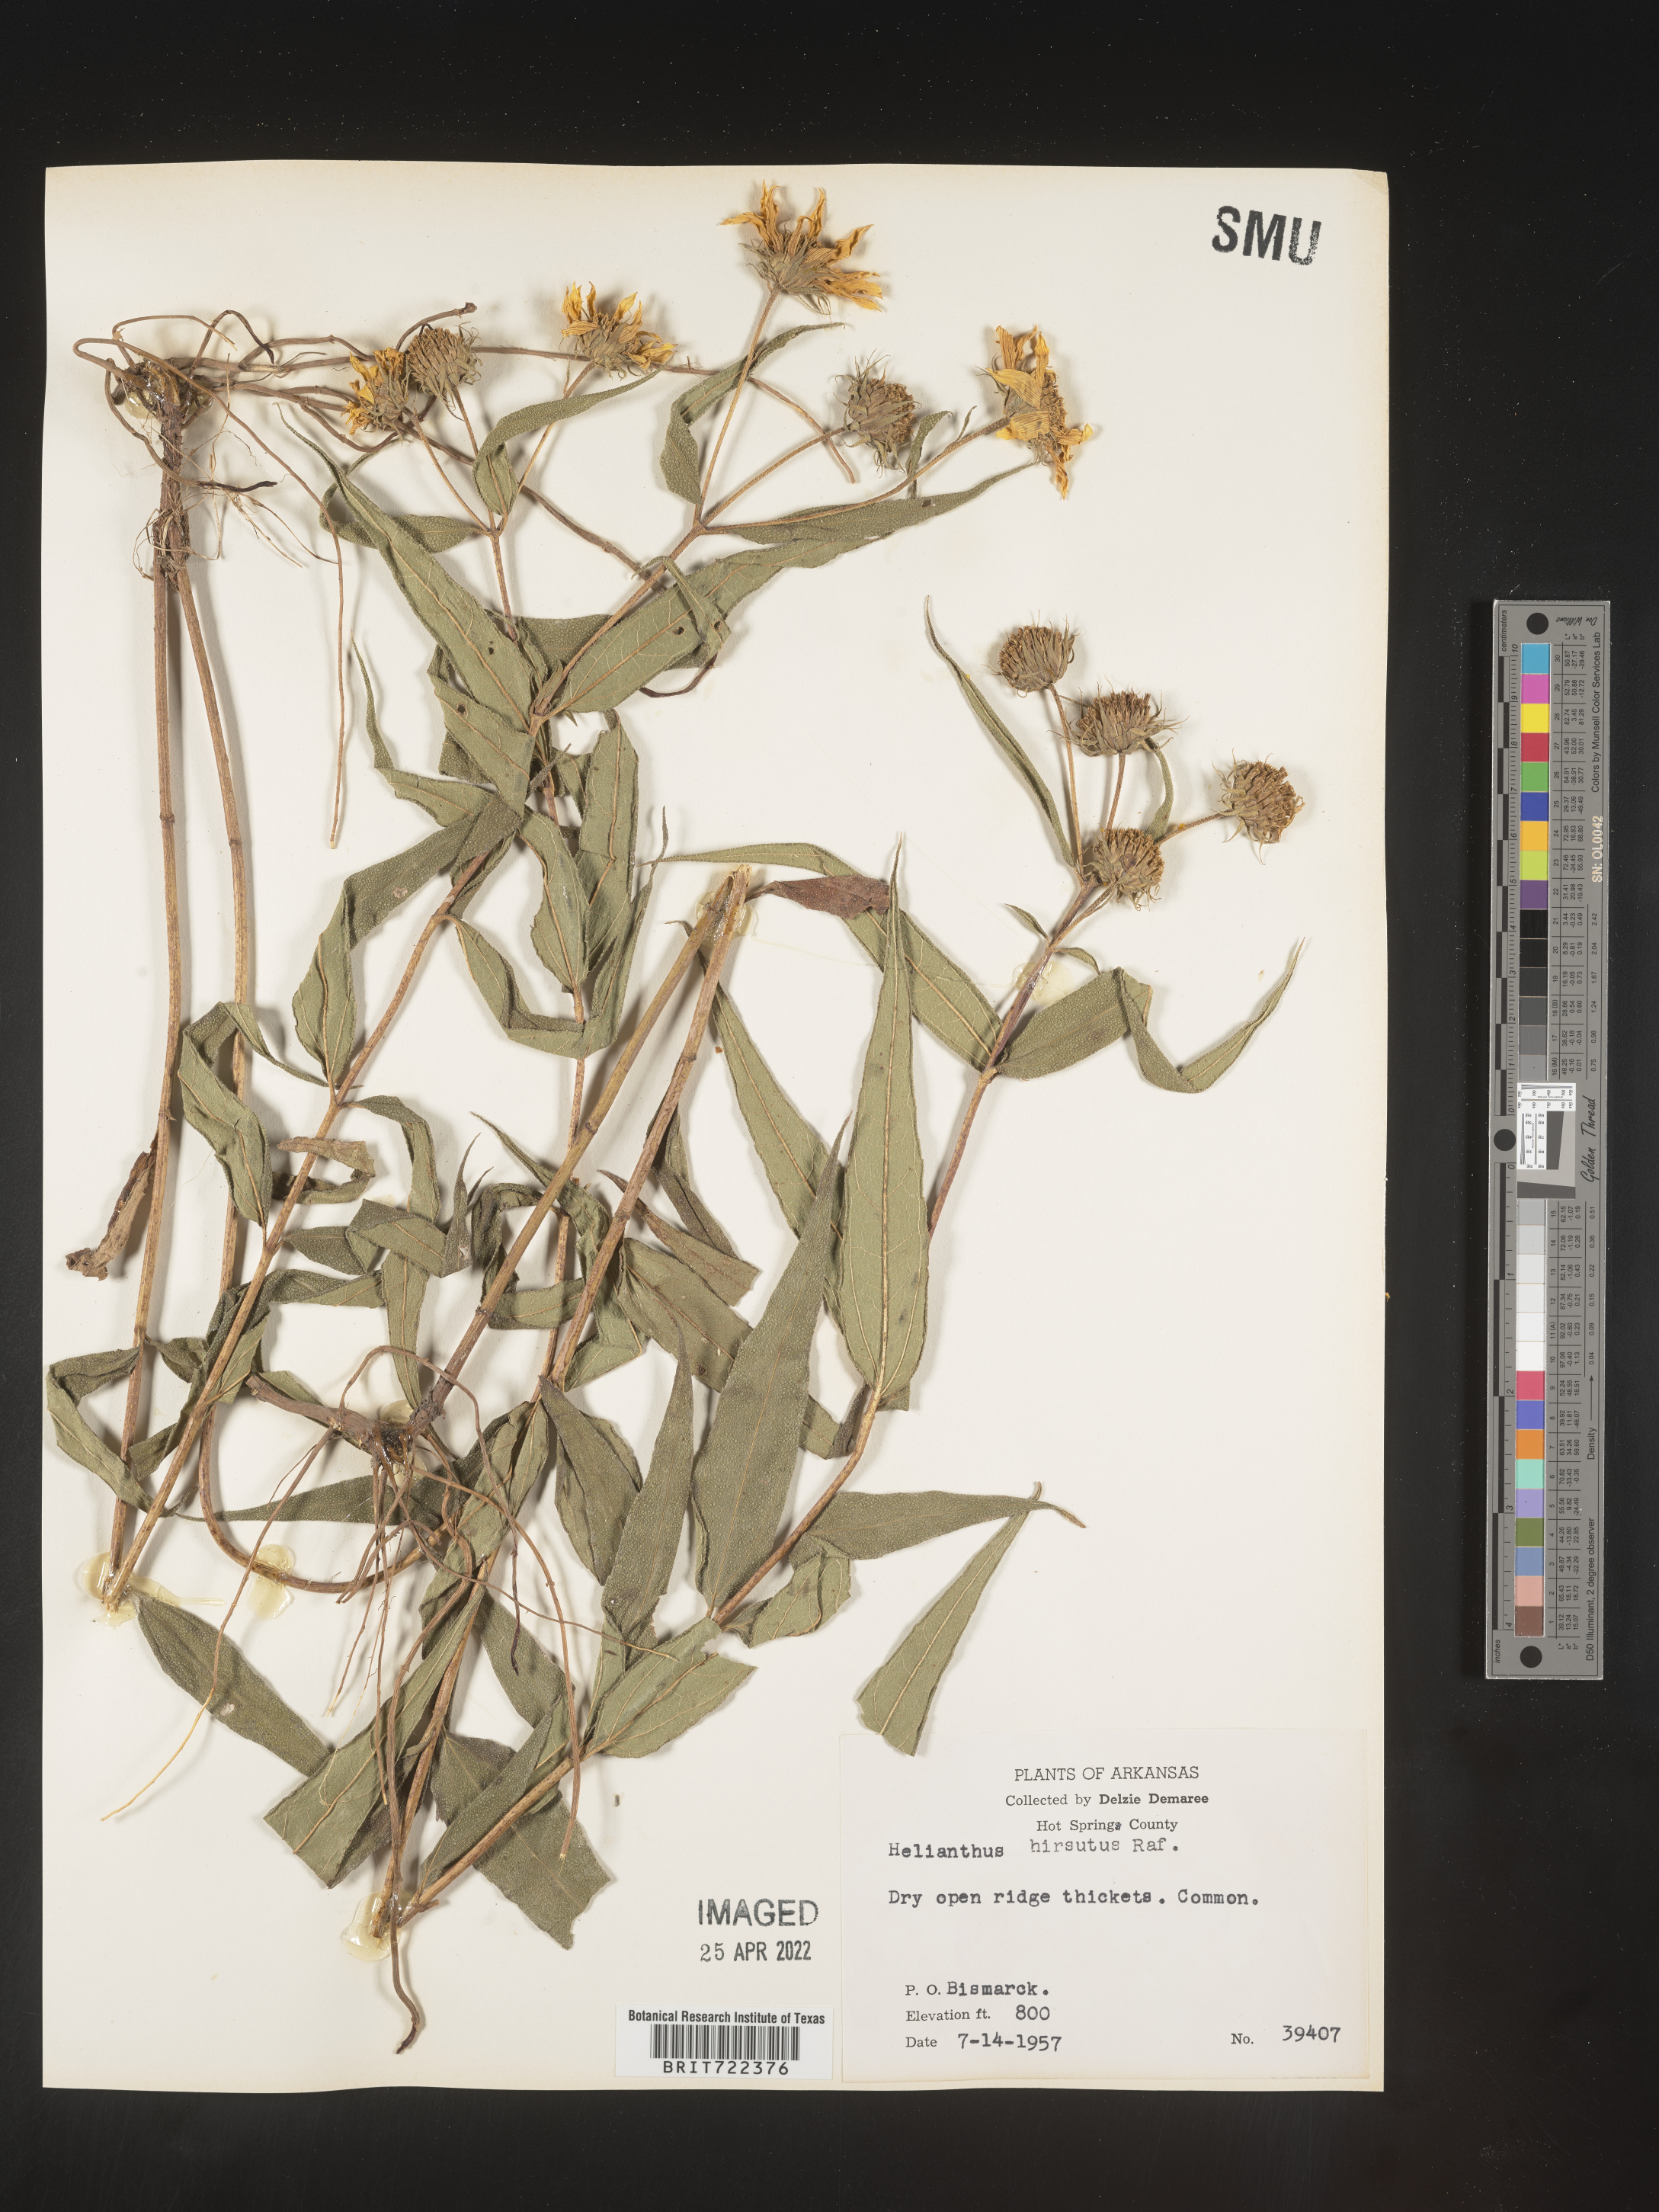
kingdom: Plantae
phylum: Tracheophyta
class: Magnoliopsida
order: Asterales
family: Asteraceae
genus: Helianthus
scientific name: Helianthus hirsutus
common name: Hairy sunflower
